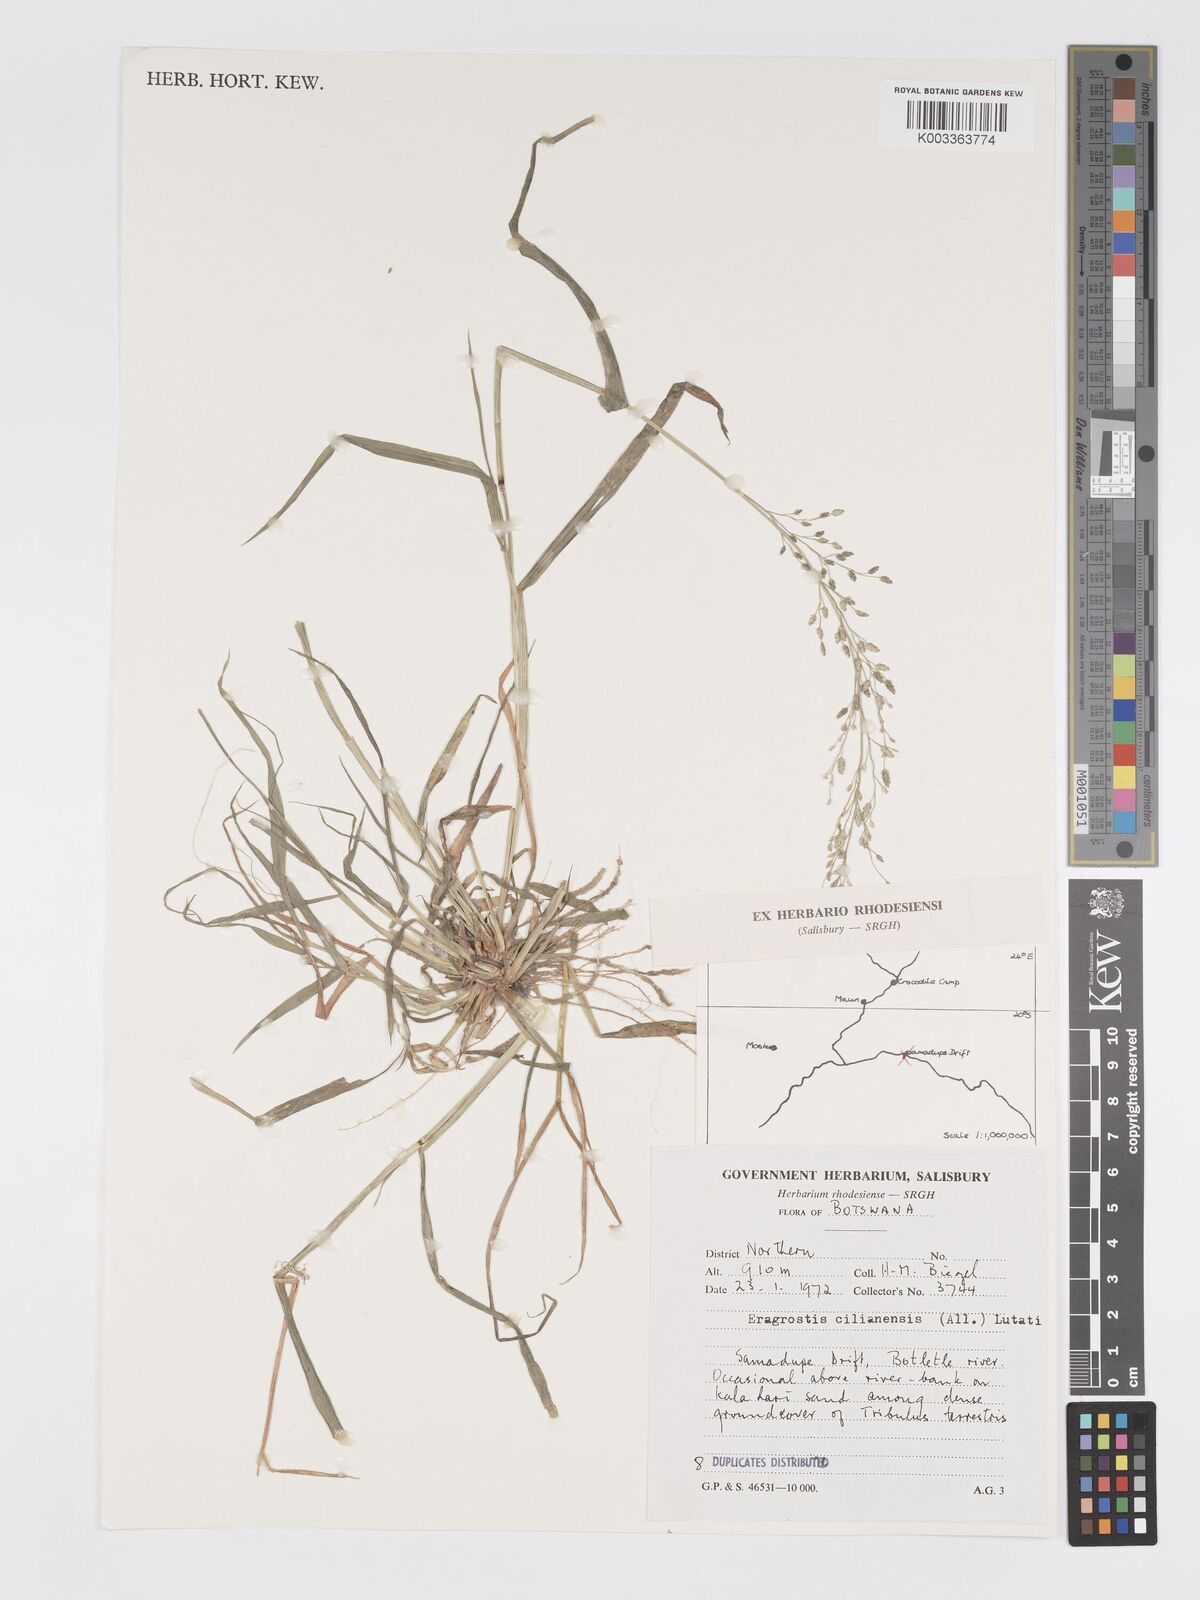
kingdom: Plantae
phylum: Tracheophyta
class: Liliopsida
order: Poales
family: Poaceae
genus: Eragrostis
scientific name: Eragrostis cilianensis
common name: Stinkgrass
